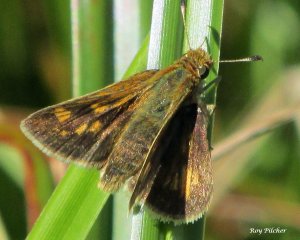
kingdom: Animalia
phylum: Arthropoda
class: Insecta
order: Lepidoptera
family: Hesperiidae
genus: Polites
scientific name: Polites coras
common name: Peck's Skipper
